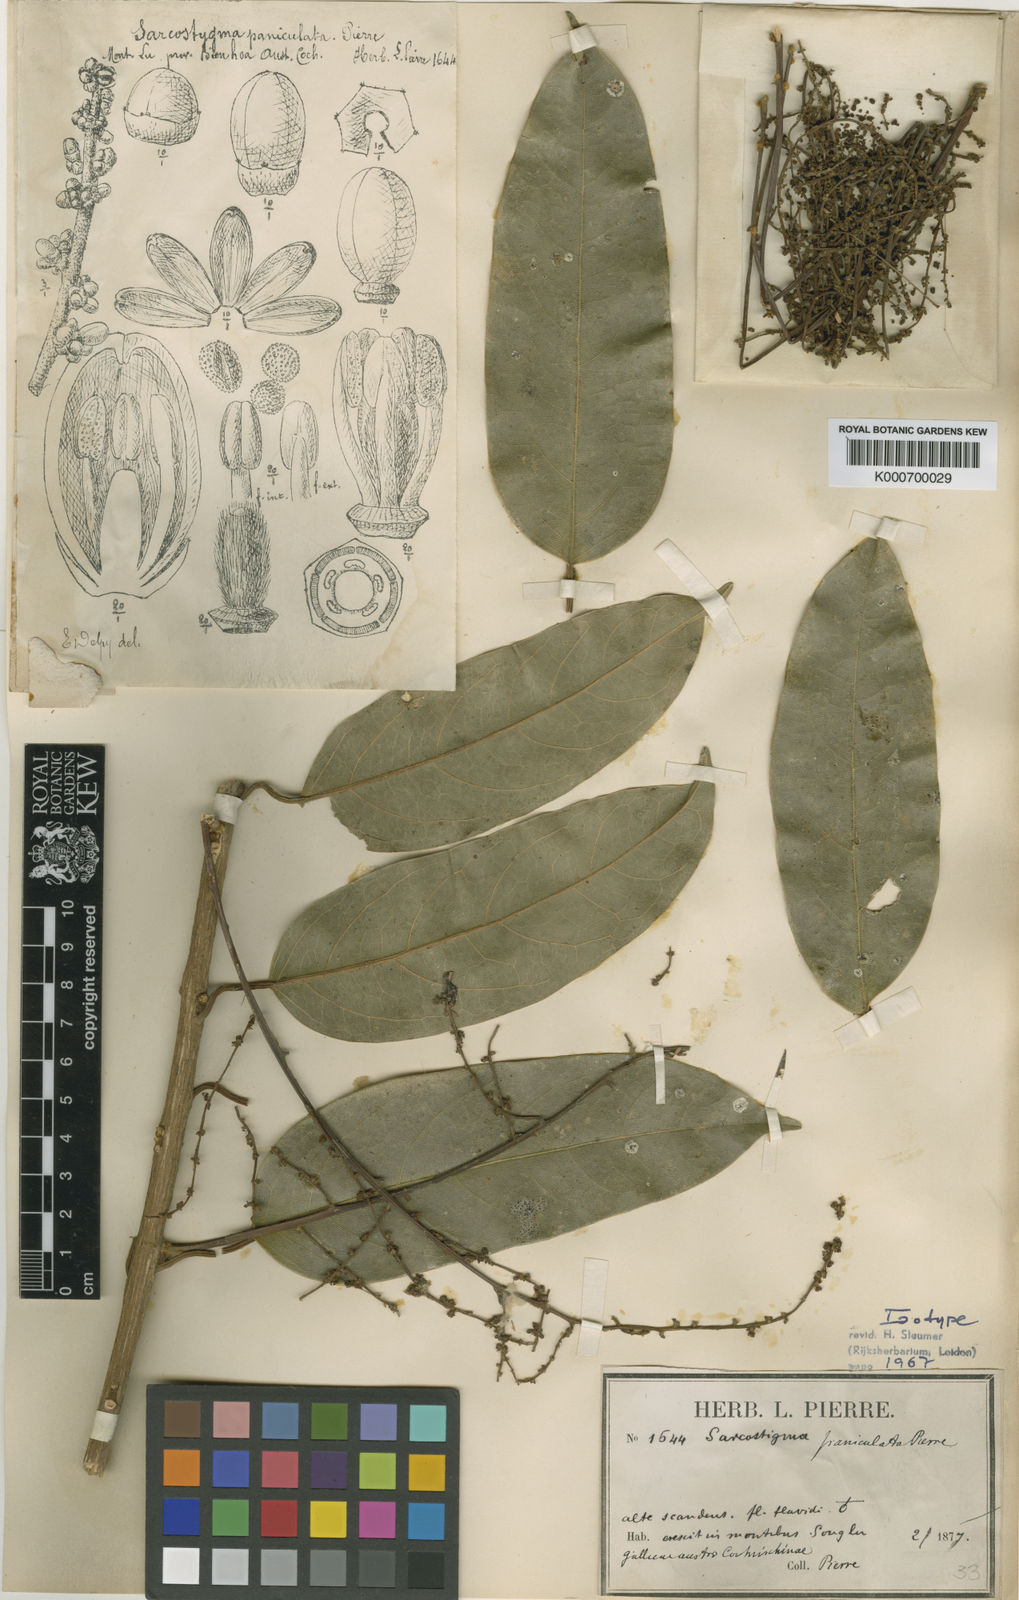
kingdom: Plantae
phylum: Tracheophyta
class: Magnoliopsida
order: Icacinales
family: Icacinaceae
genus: Sarcostigma
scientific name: Sarcostigma paniculata
